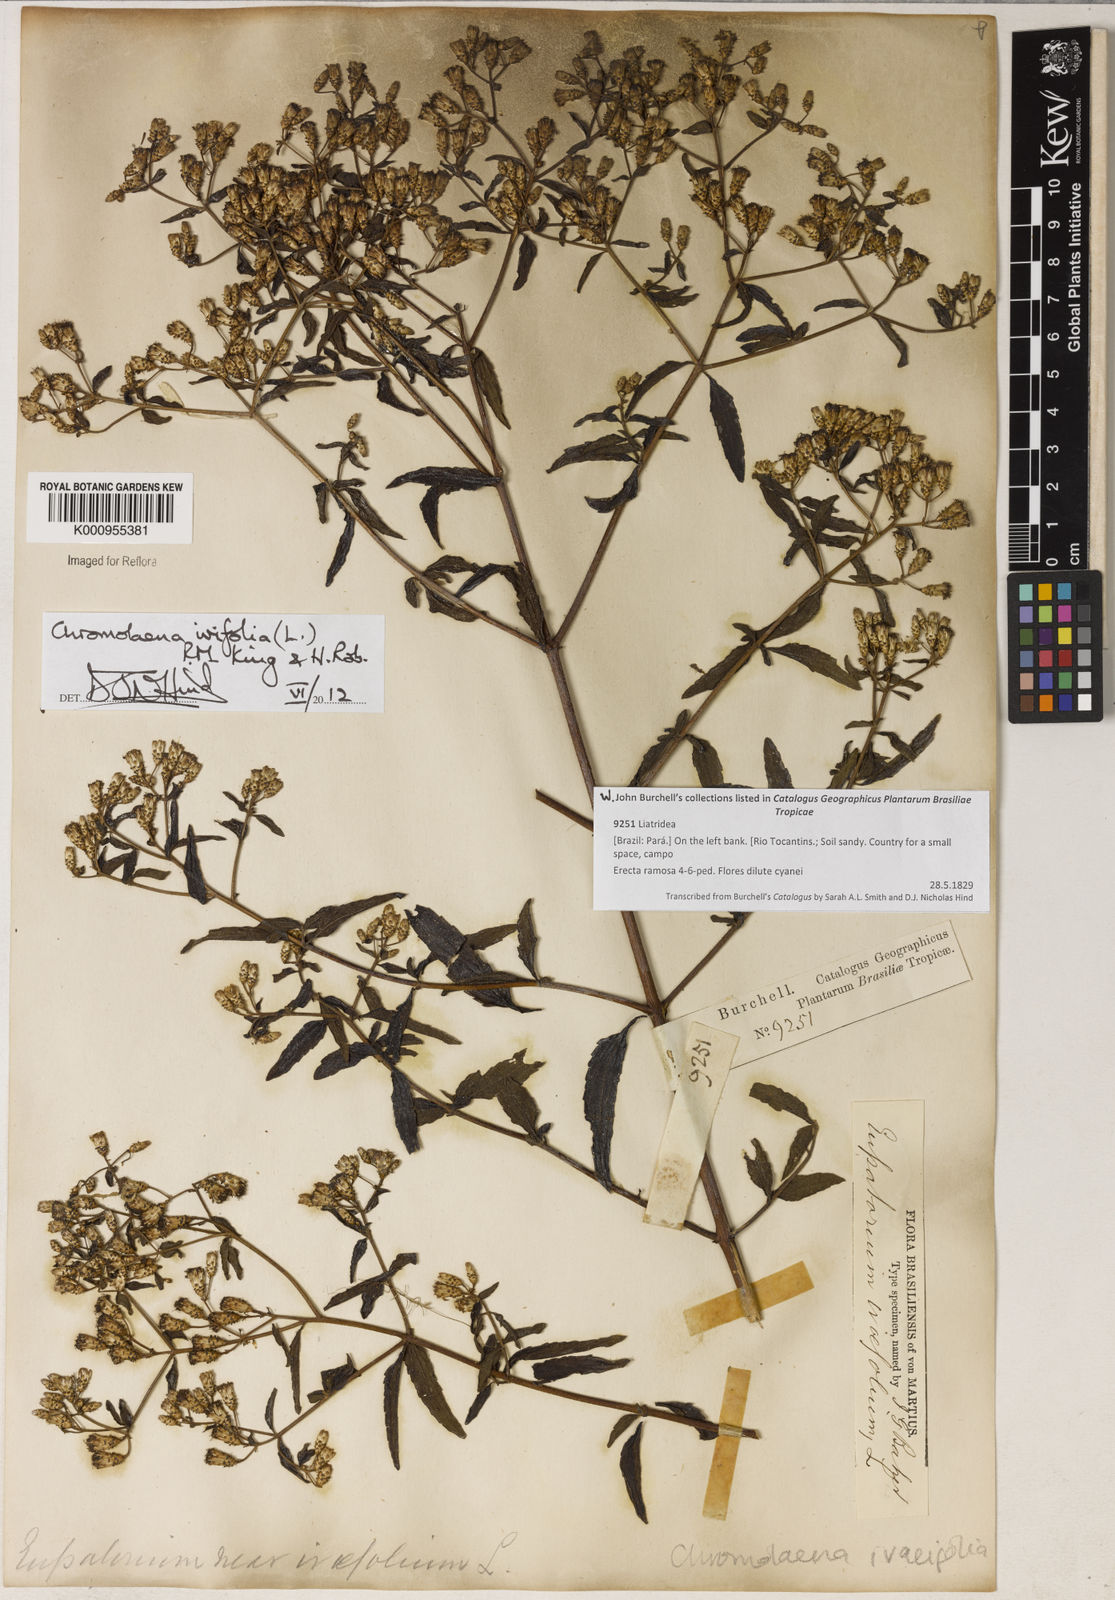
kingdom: Plantae
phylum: Tracheophyta
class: Magnoliopsida
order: Asterales
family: Asteraceae
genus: Chromolaena
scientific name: Chromolaena ivifolia
